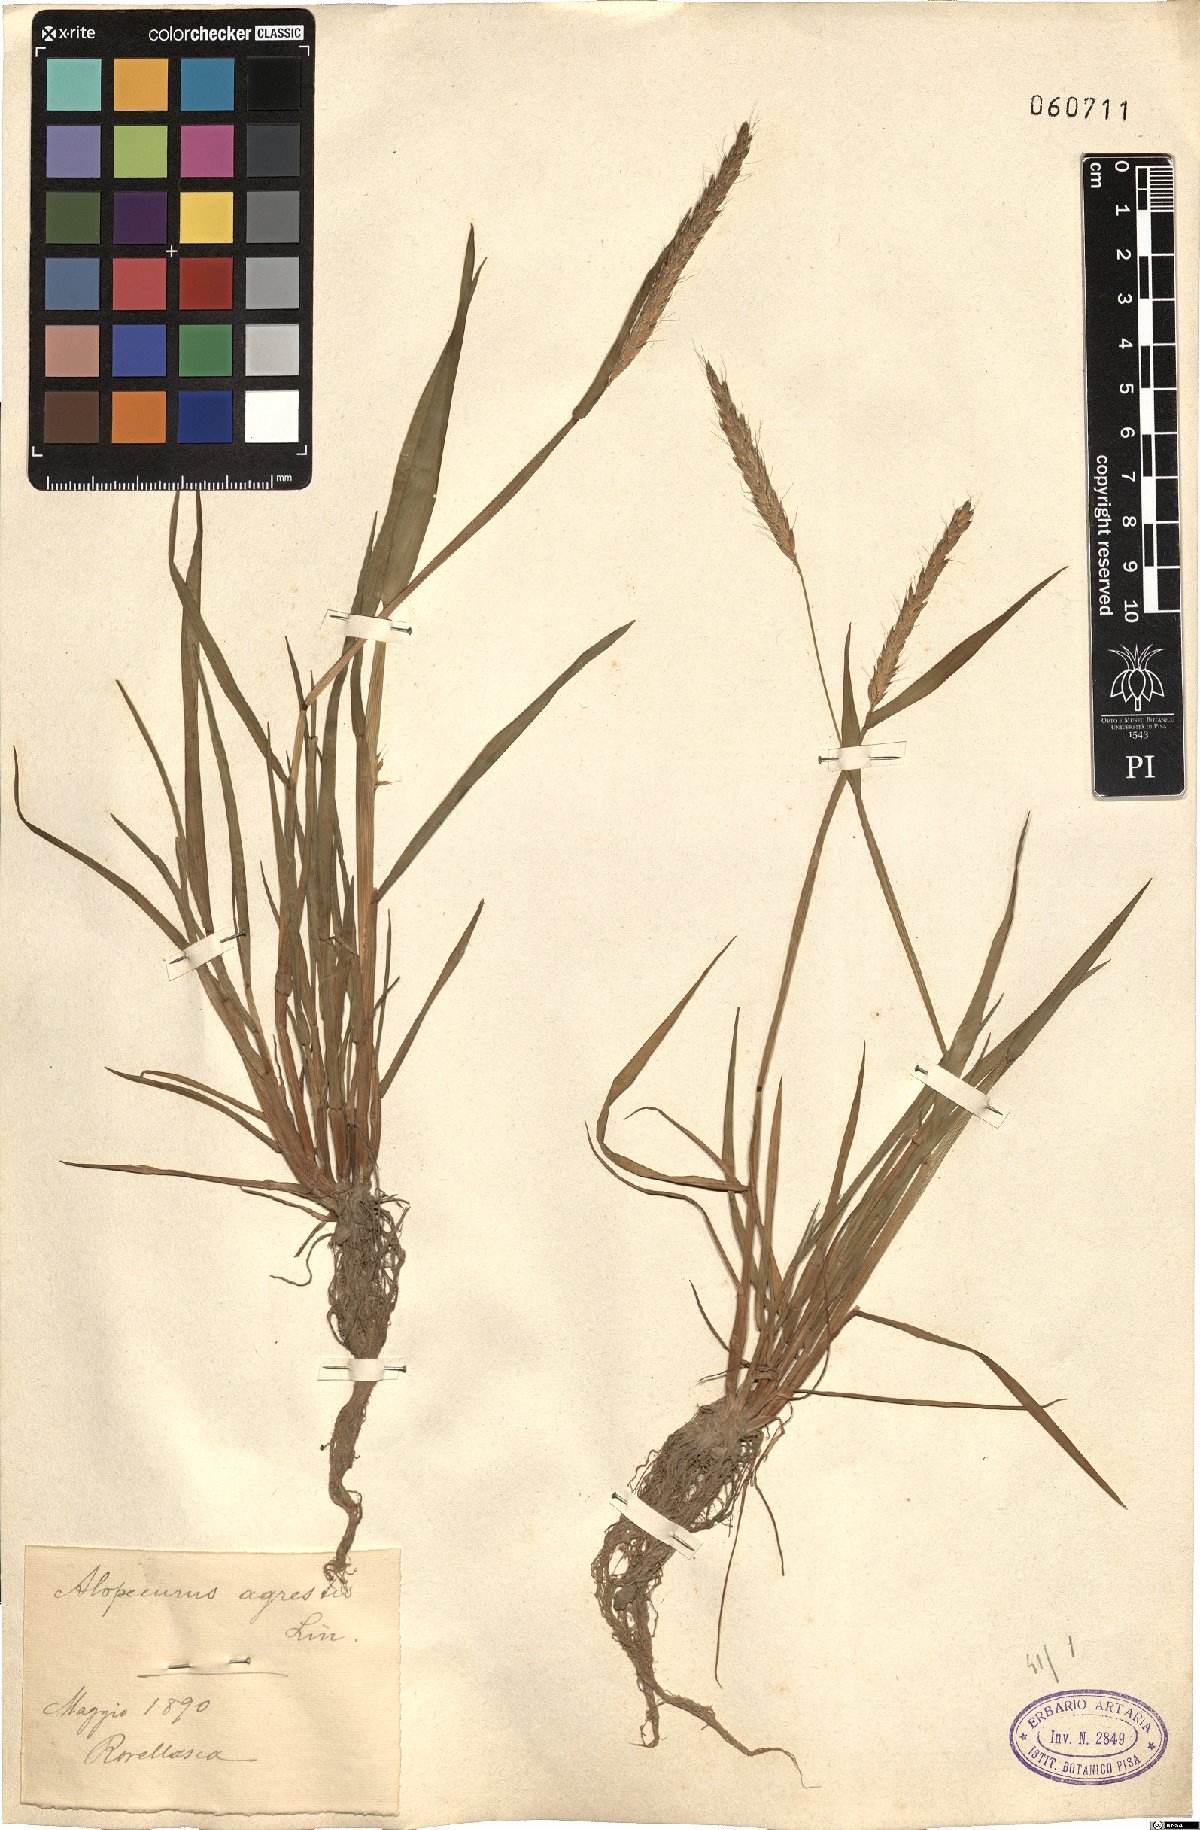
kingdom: Plantae
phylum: Tracheophyta
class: Liliopsida
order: Poales
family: Poaceae
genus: Alopecurus
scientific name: Alopecurus myosuroides
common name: Black-grass
